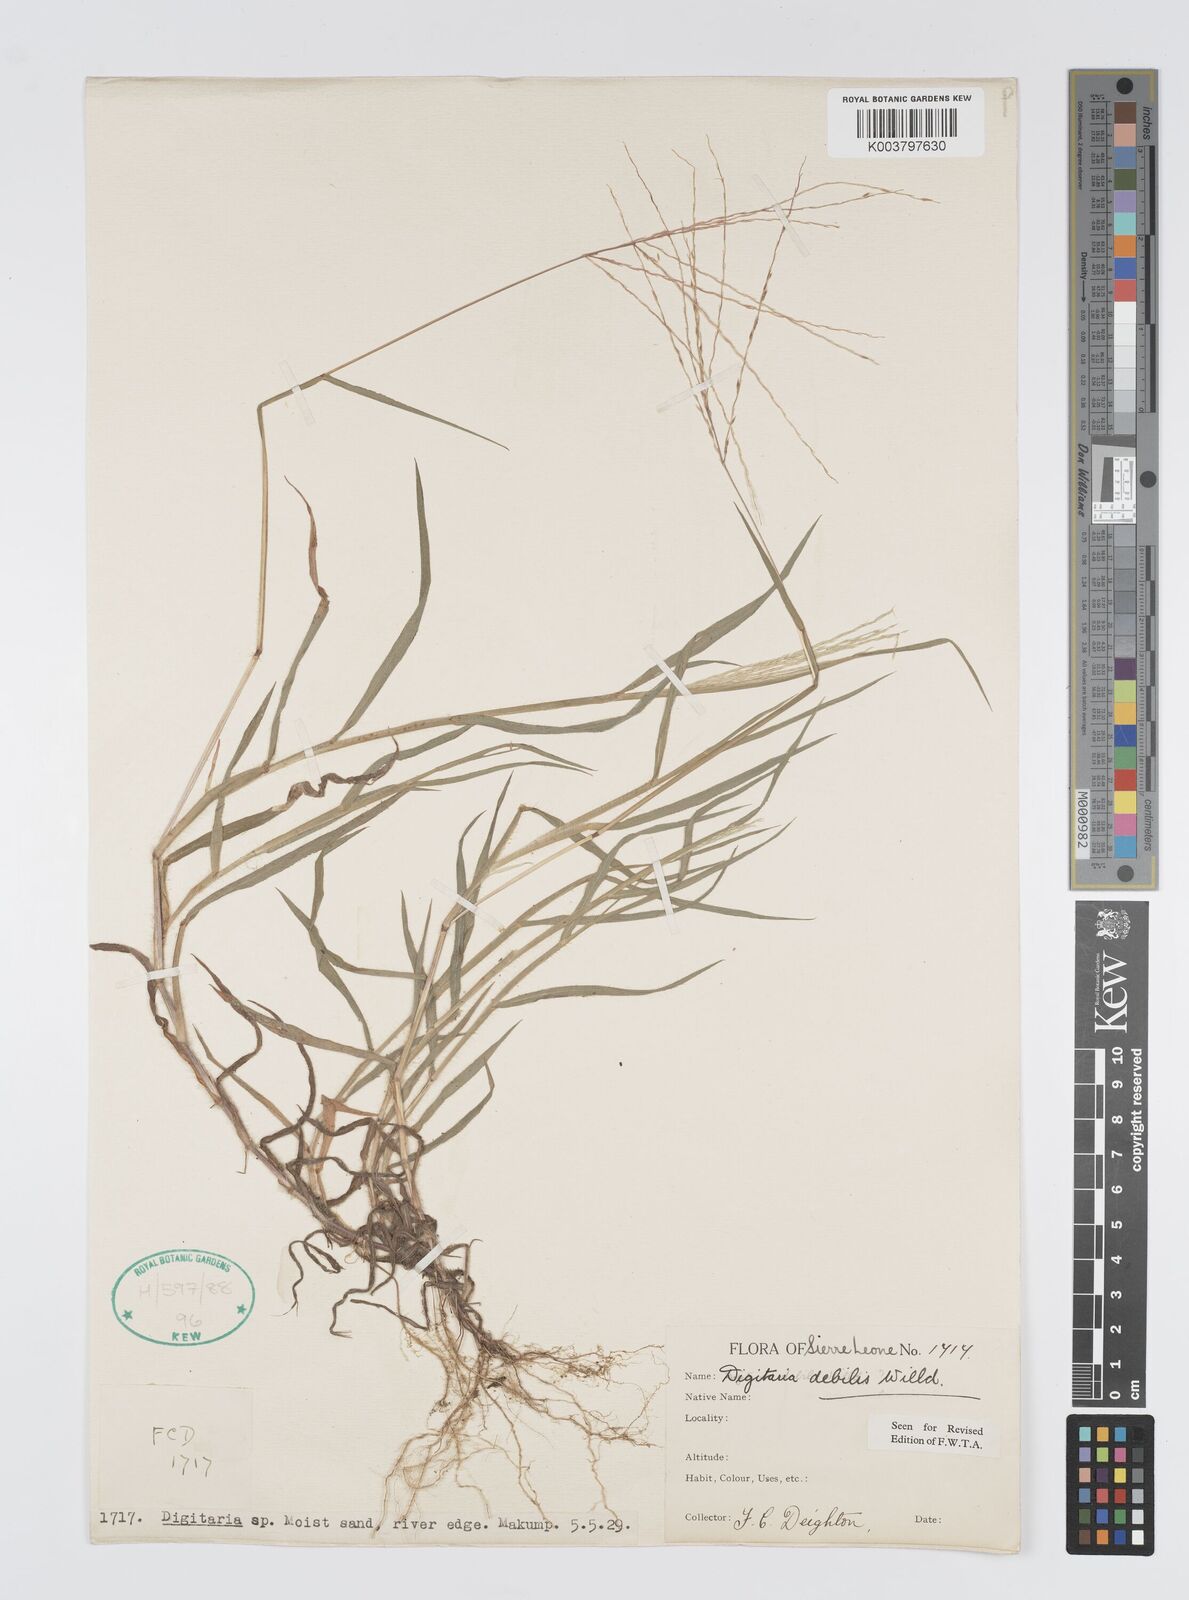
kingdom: Plantae
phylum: Tracheophyta
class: Liliopsida
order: Poales
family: Poaceae
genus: Digitaria
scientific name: Digitaria debilis
